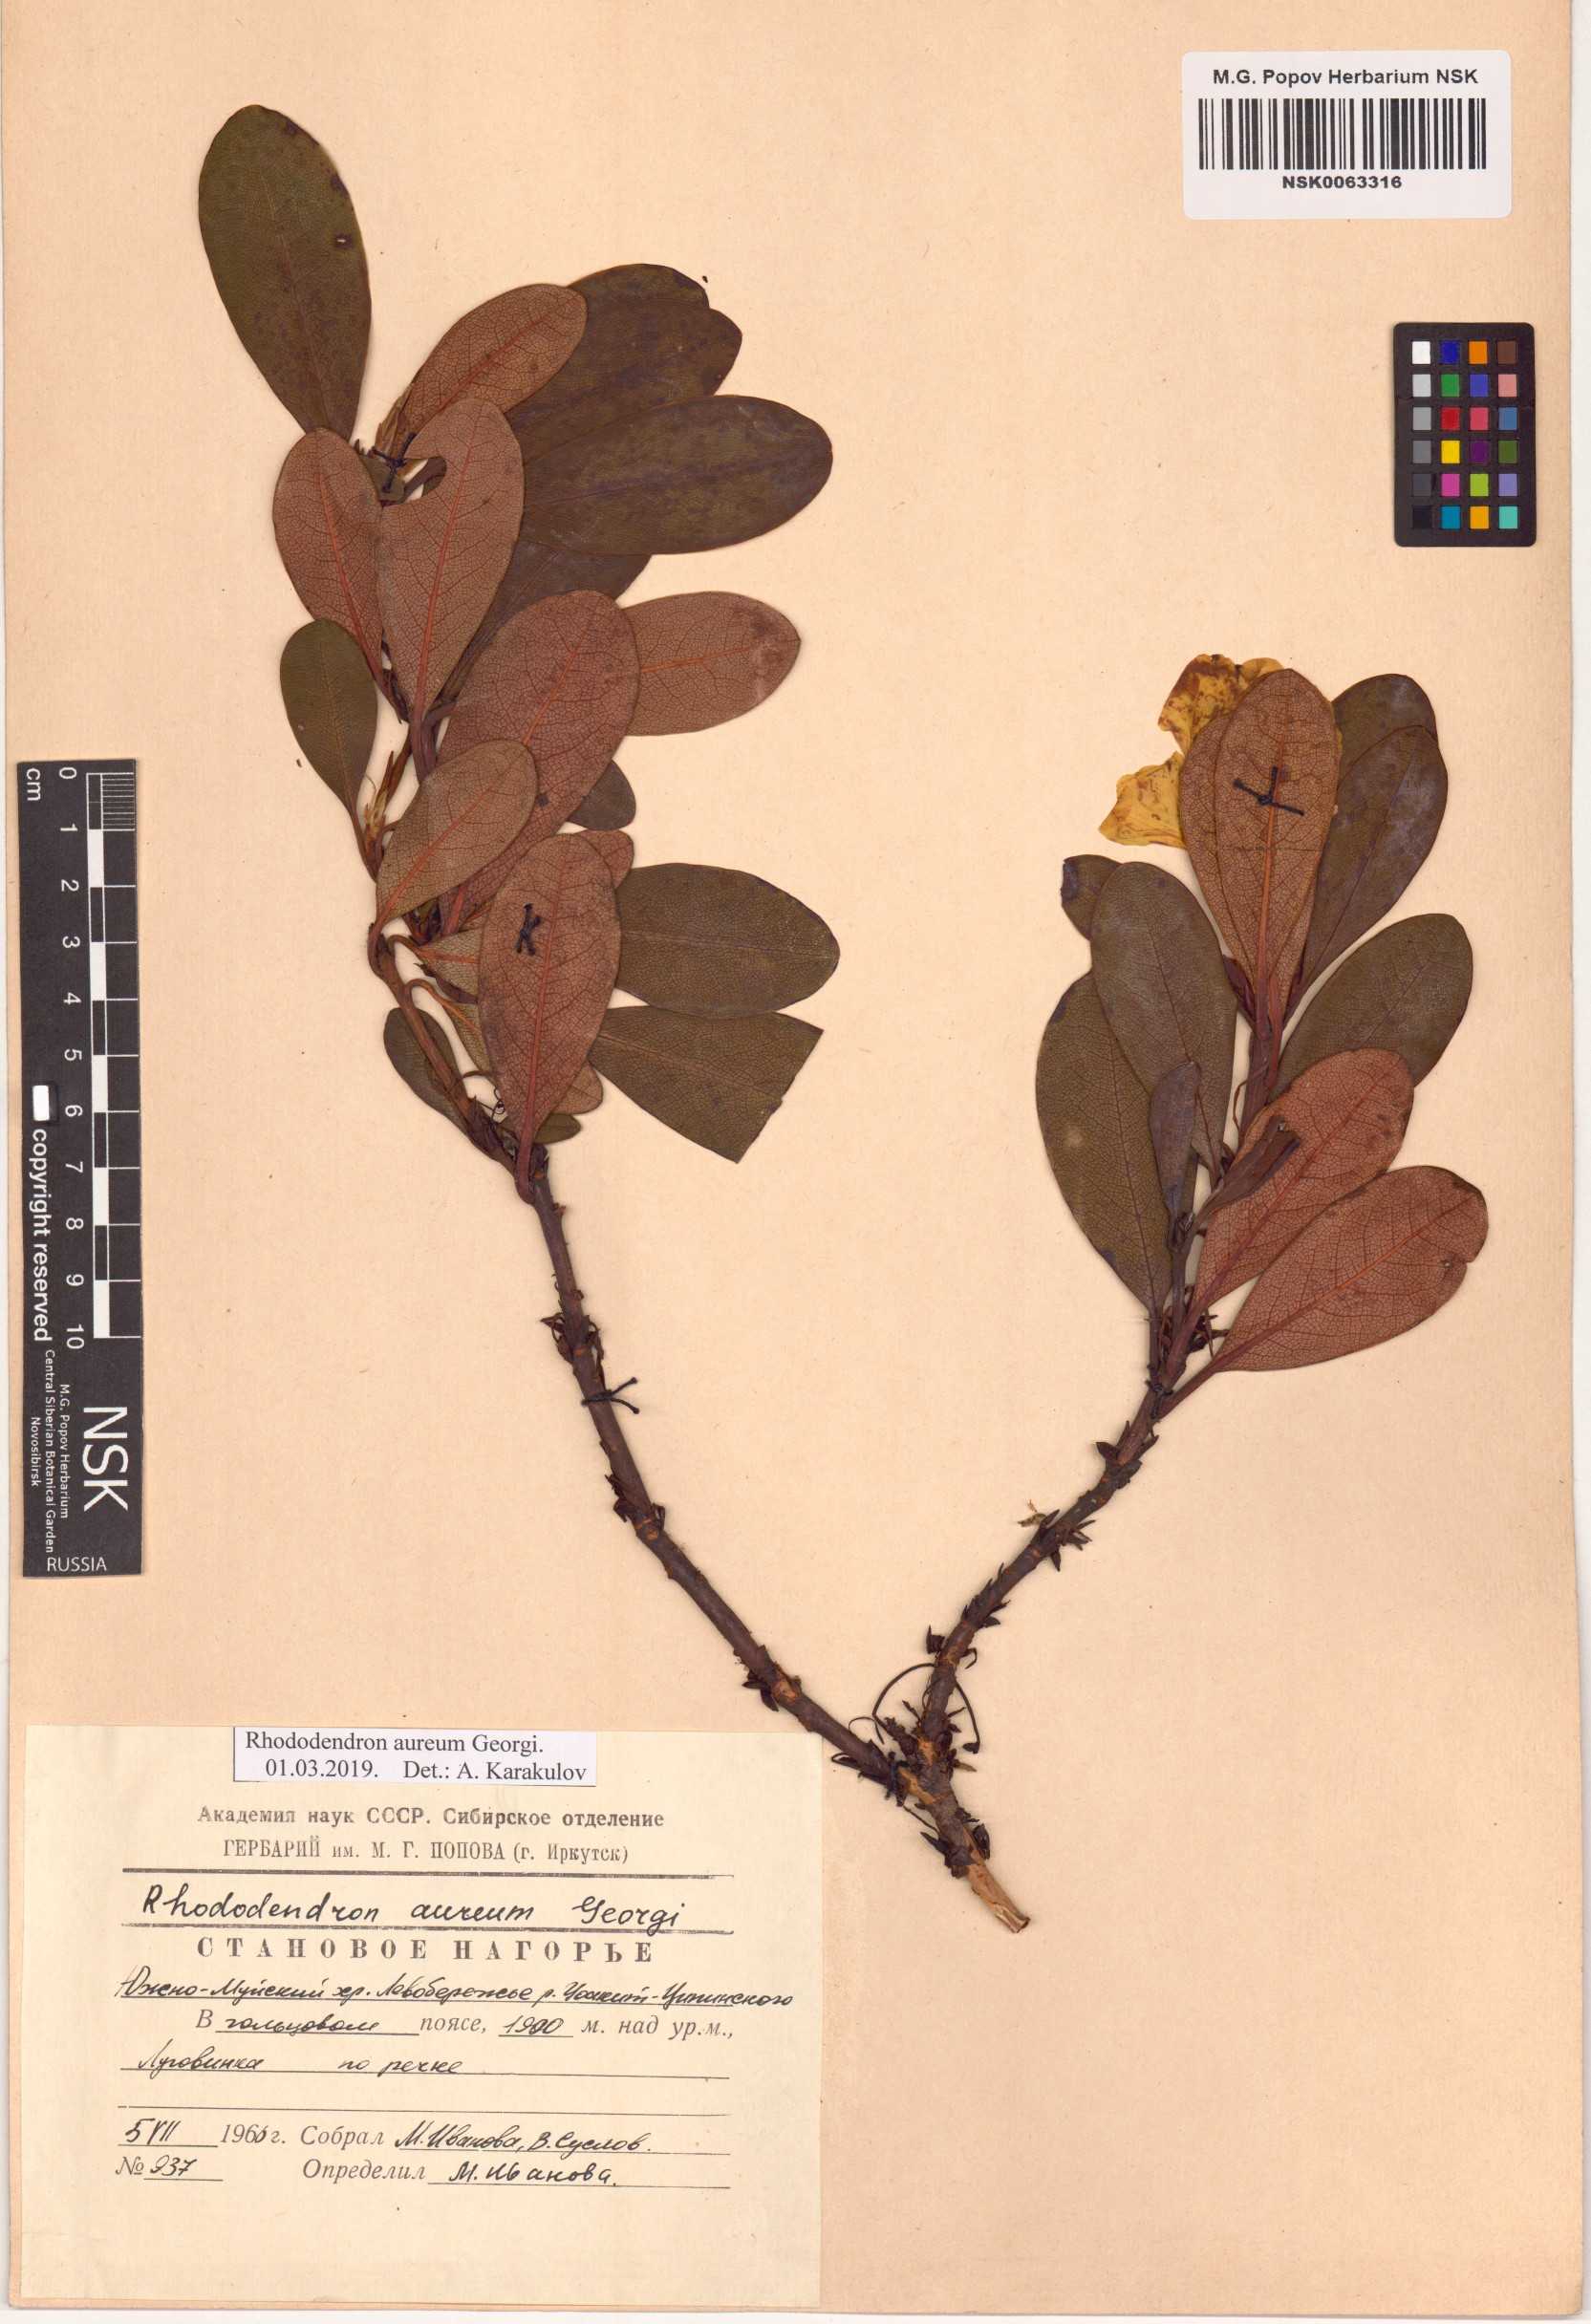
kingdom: Plantae
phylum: Tracheophyta
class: Magnoliopsida
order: Ericales
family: Ericaceae
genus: Rhododendron
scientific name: Rhododendron aureum
